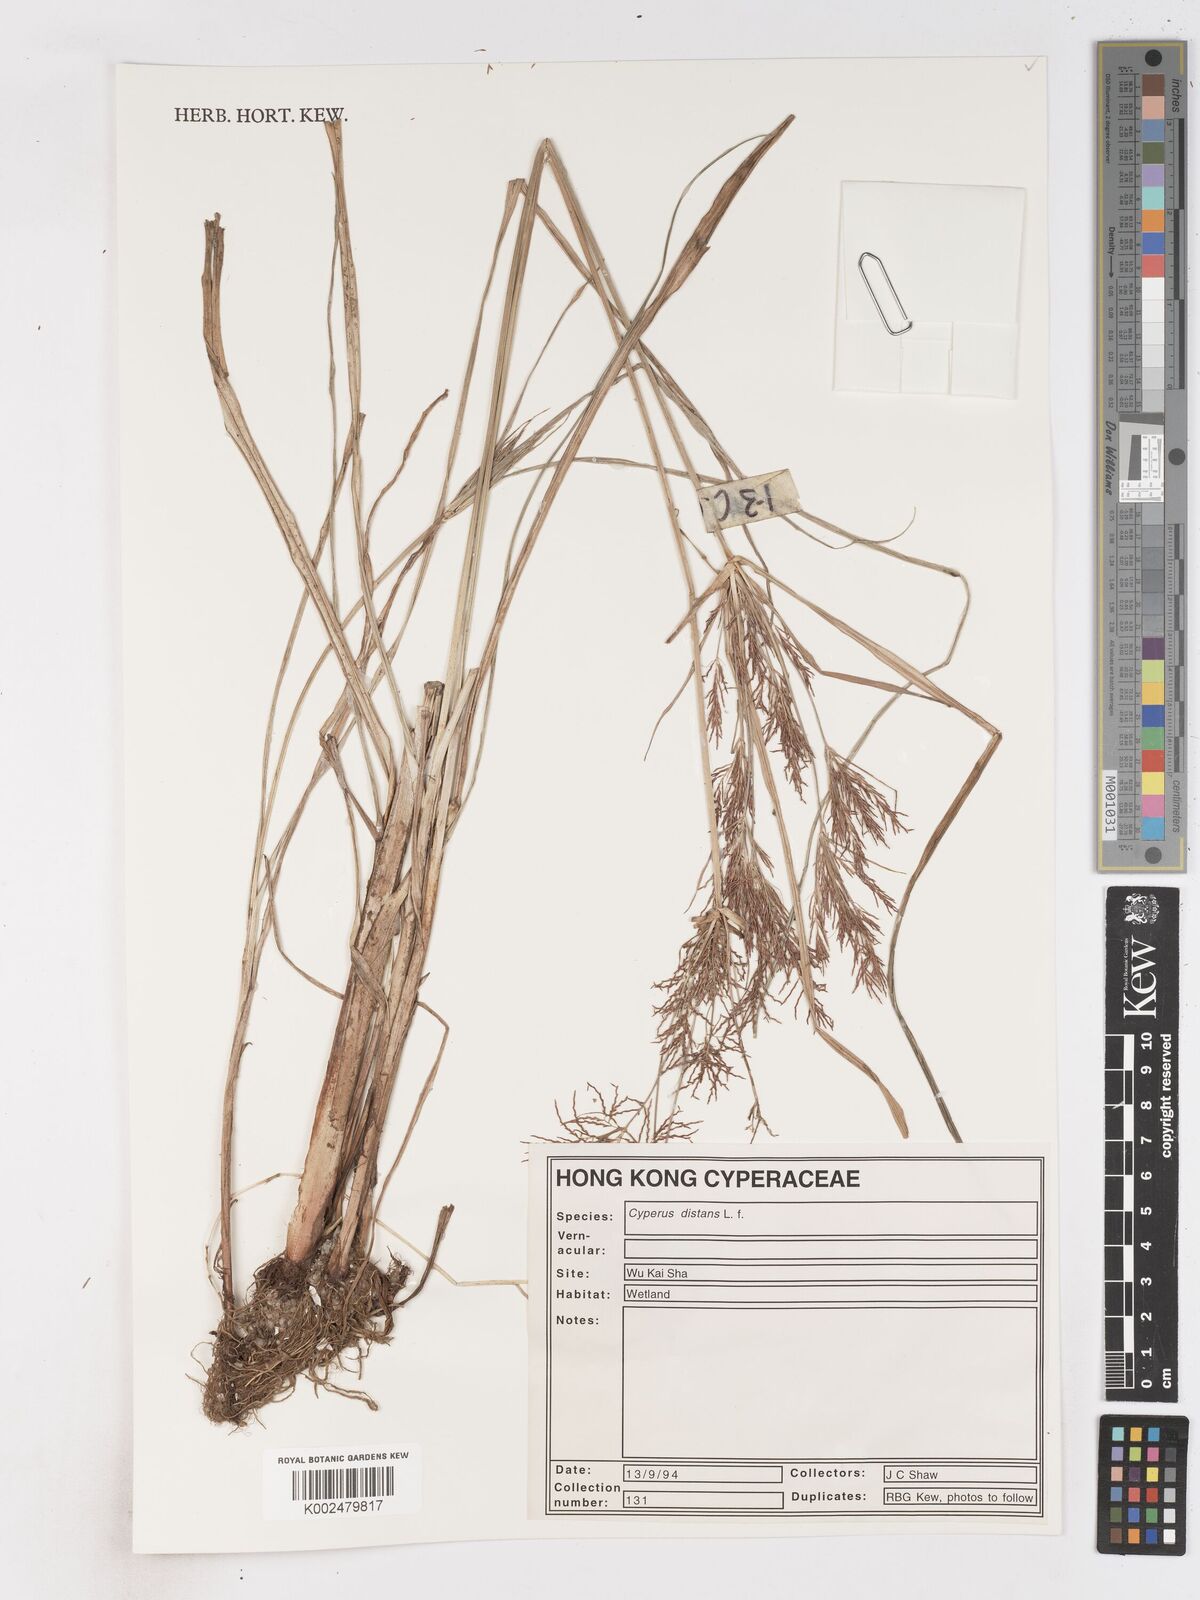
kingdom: Plantae
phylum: Tracheophyta
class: Liliopsida
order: Poales
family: Cyperaceae
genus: Cyperus
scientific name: Cyperus nutans
